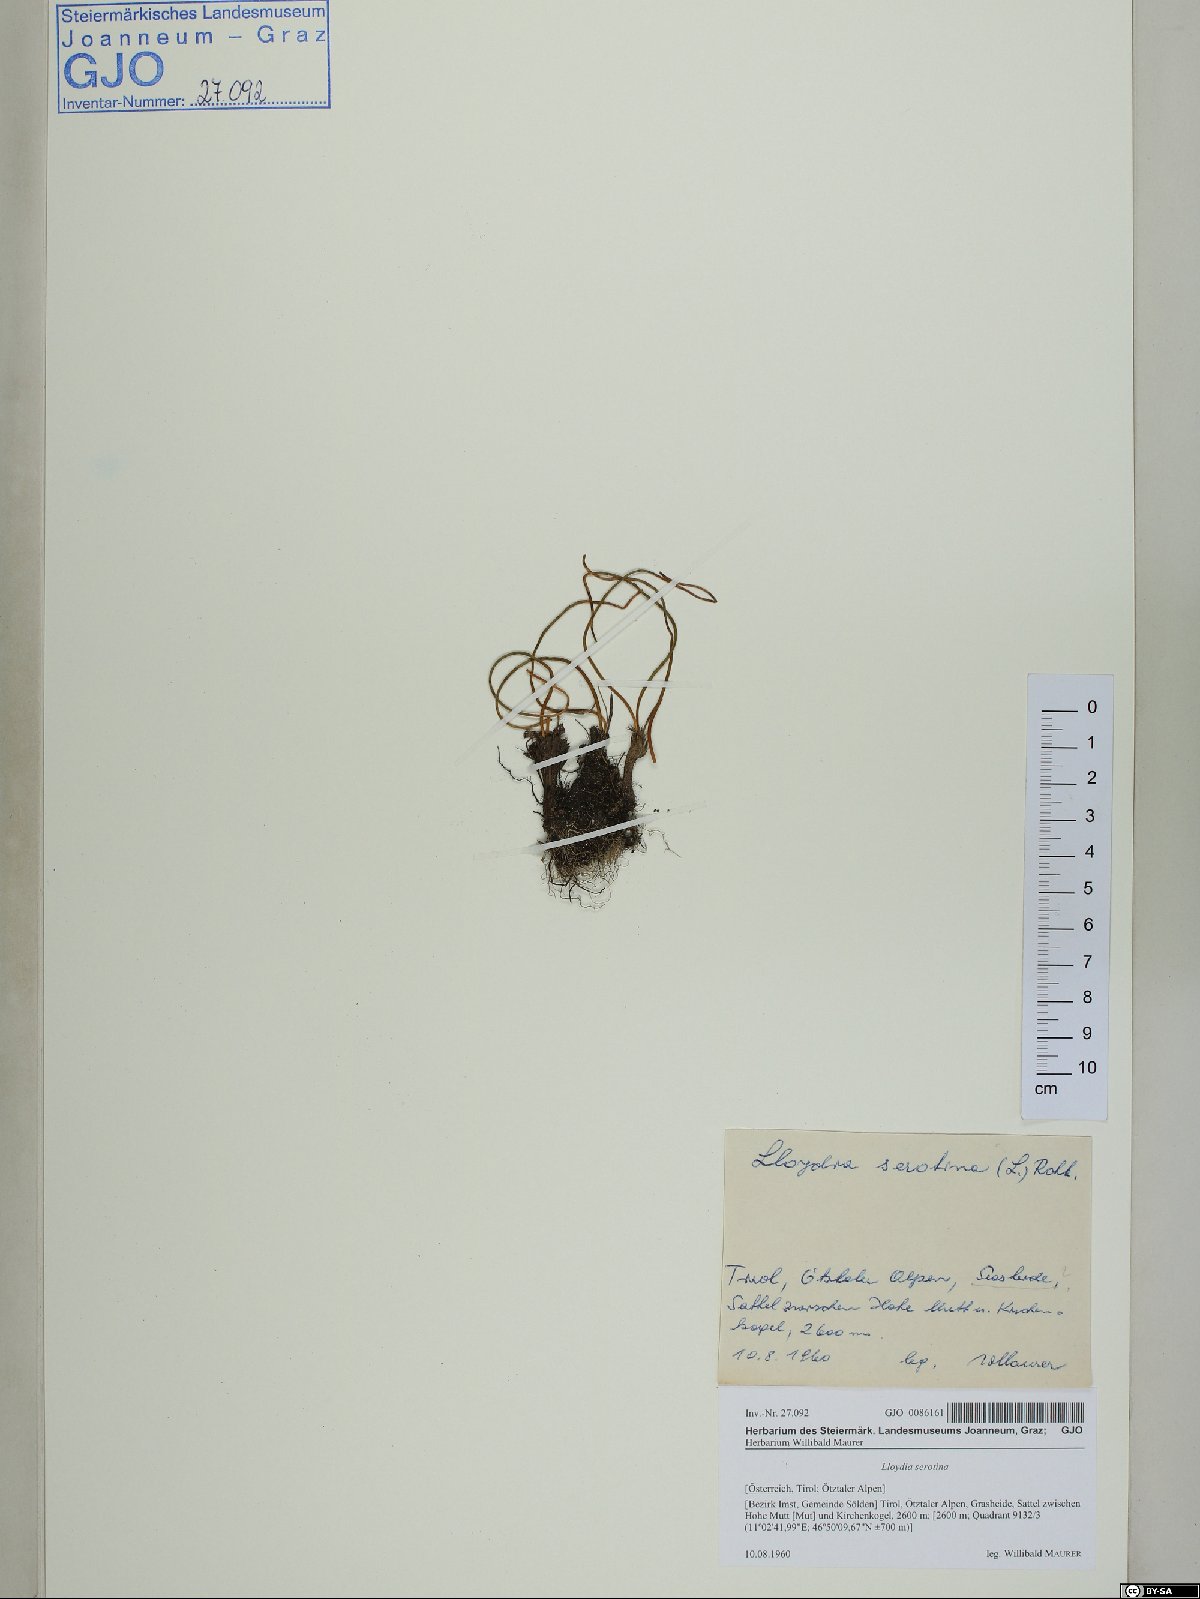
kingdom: Plantae
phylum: Tracheophyta
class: Liliopsida
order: Liliales
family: Liliaceae
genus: Gagea
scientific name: Gagea serotina
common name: Snowdon lily
